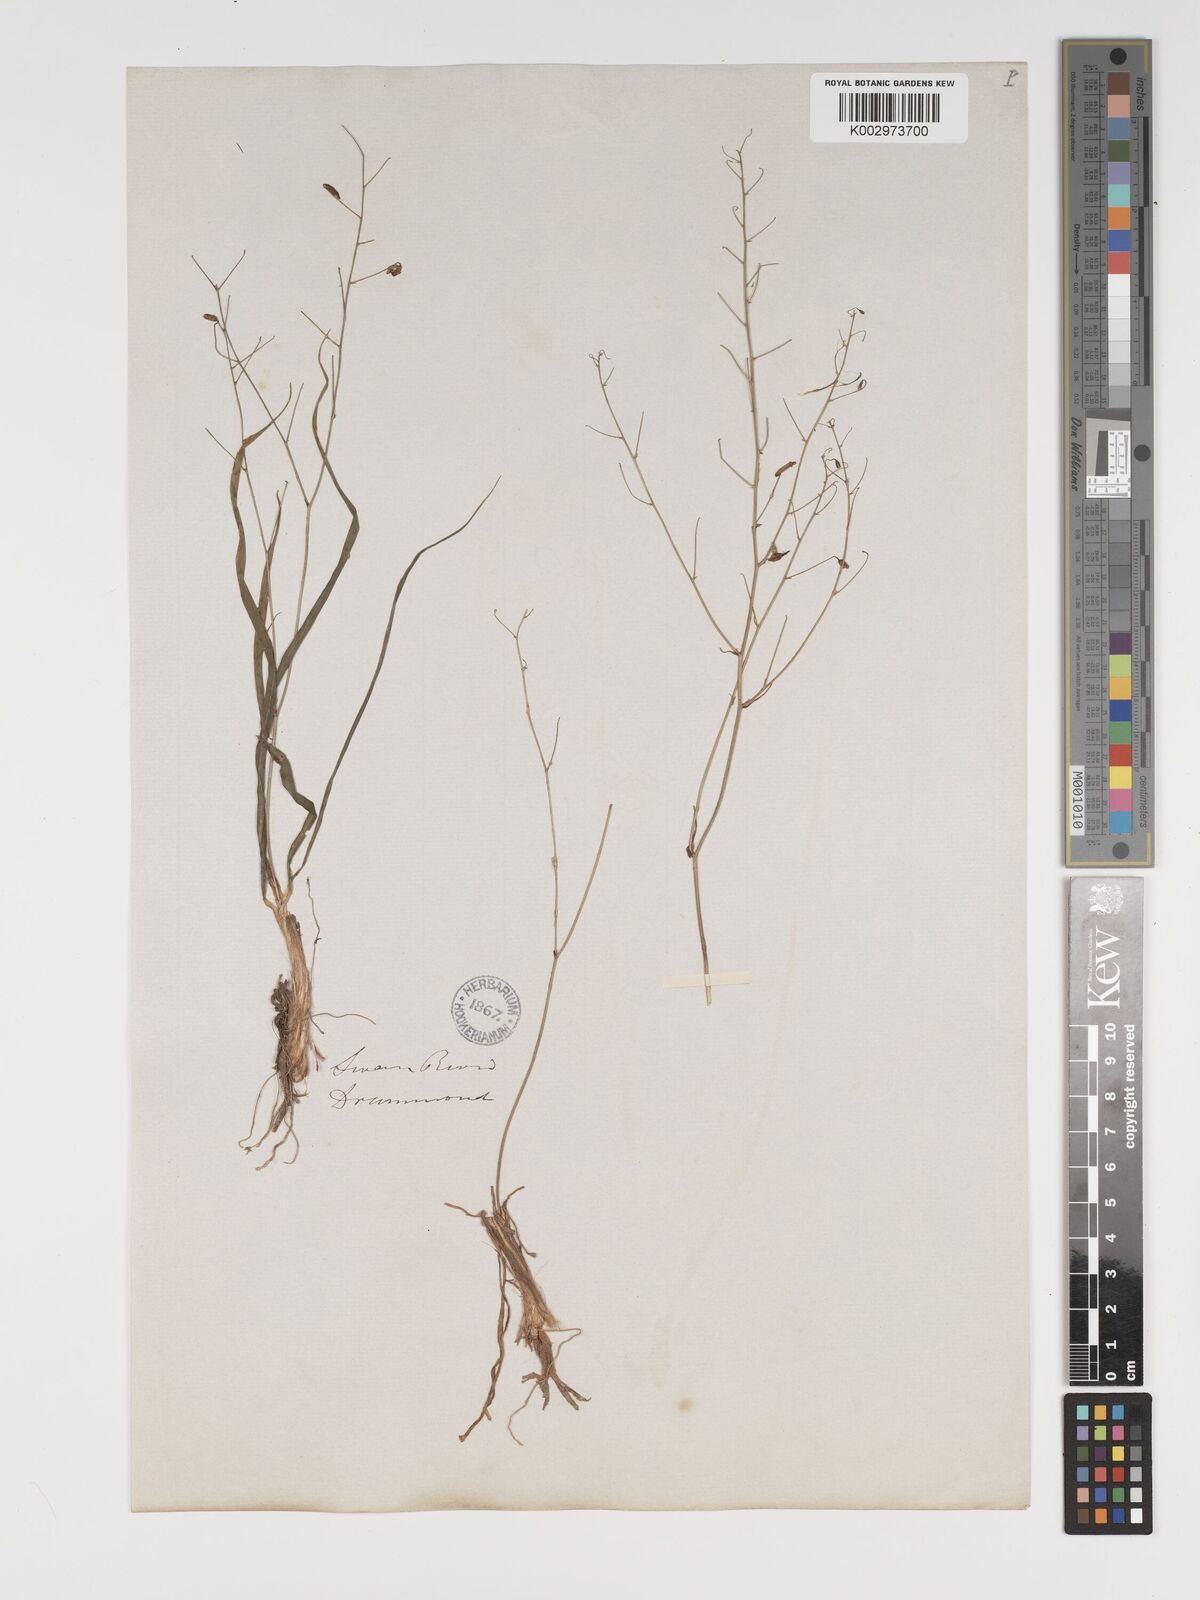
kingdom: Plantae
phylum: Tracheophyta
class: Liliopsida
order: Asparagales
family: Asparagaceae
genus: Arthropodium
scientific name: Arthropodium dyeri
